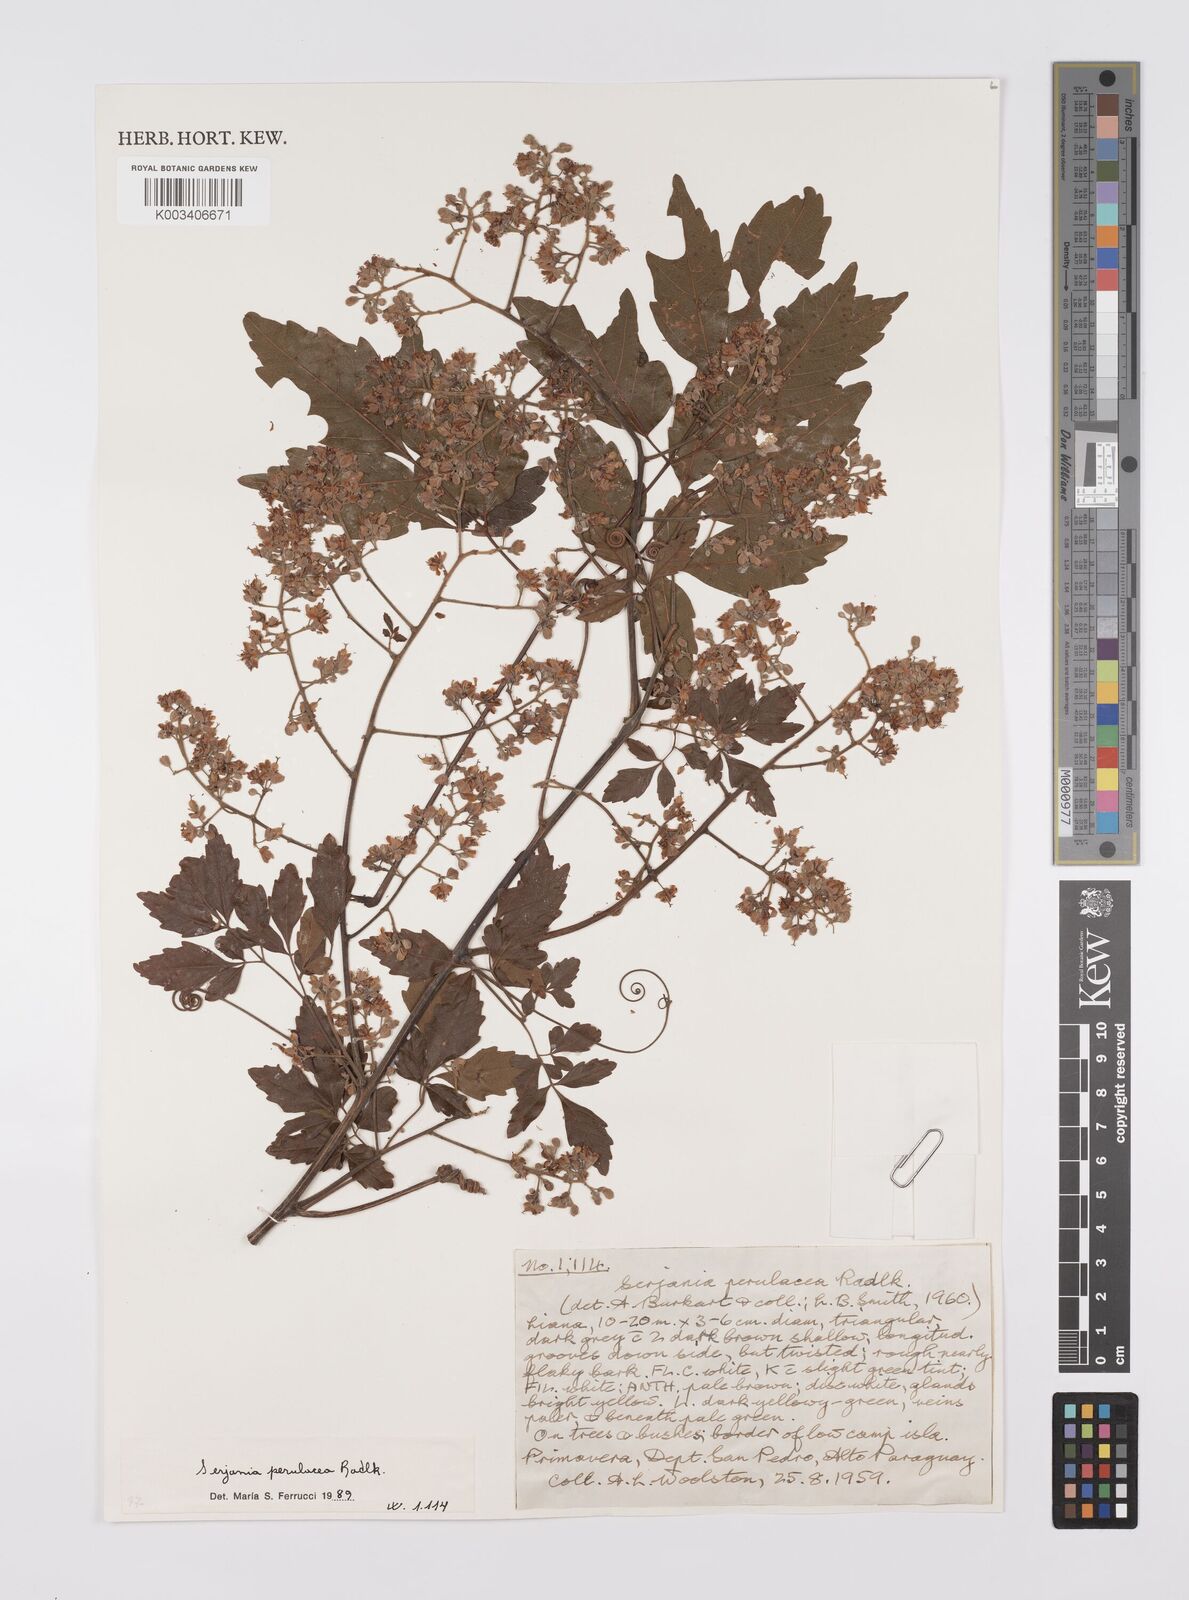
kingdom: Plantae
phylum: Tracheophyta
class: Magnoliopsida
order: Sapindales
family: Sapindaceae
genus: Serjania
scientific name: Serjania perulacea
